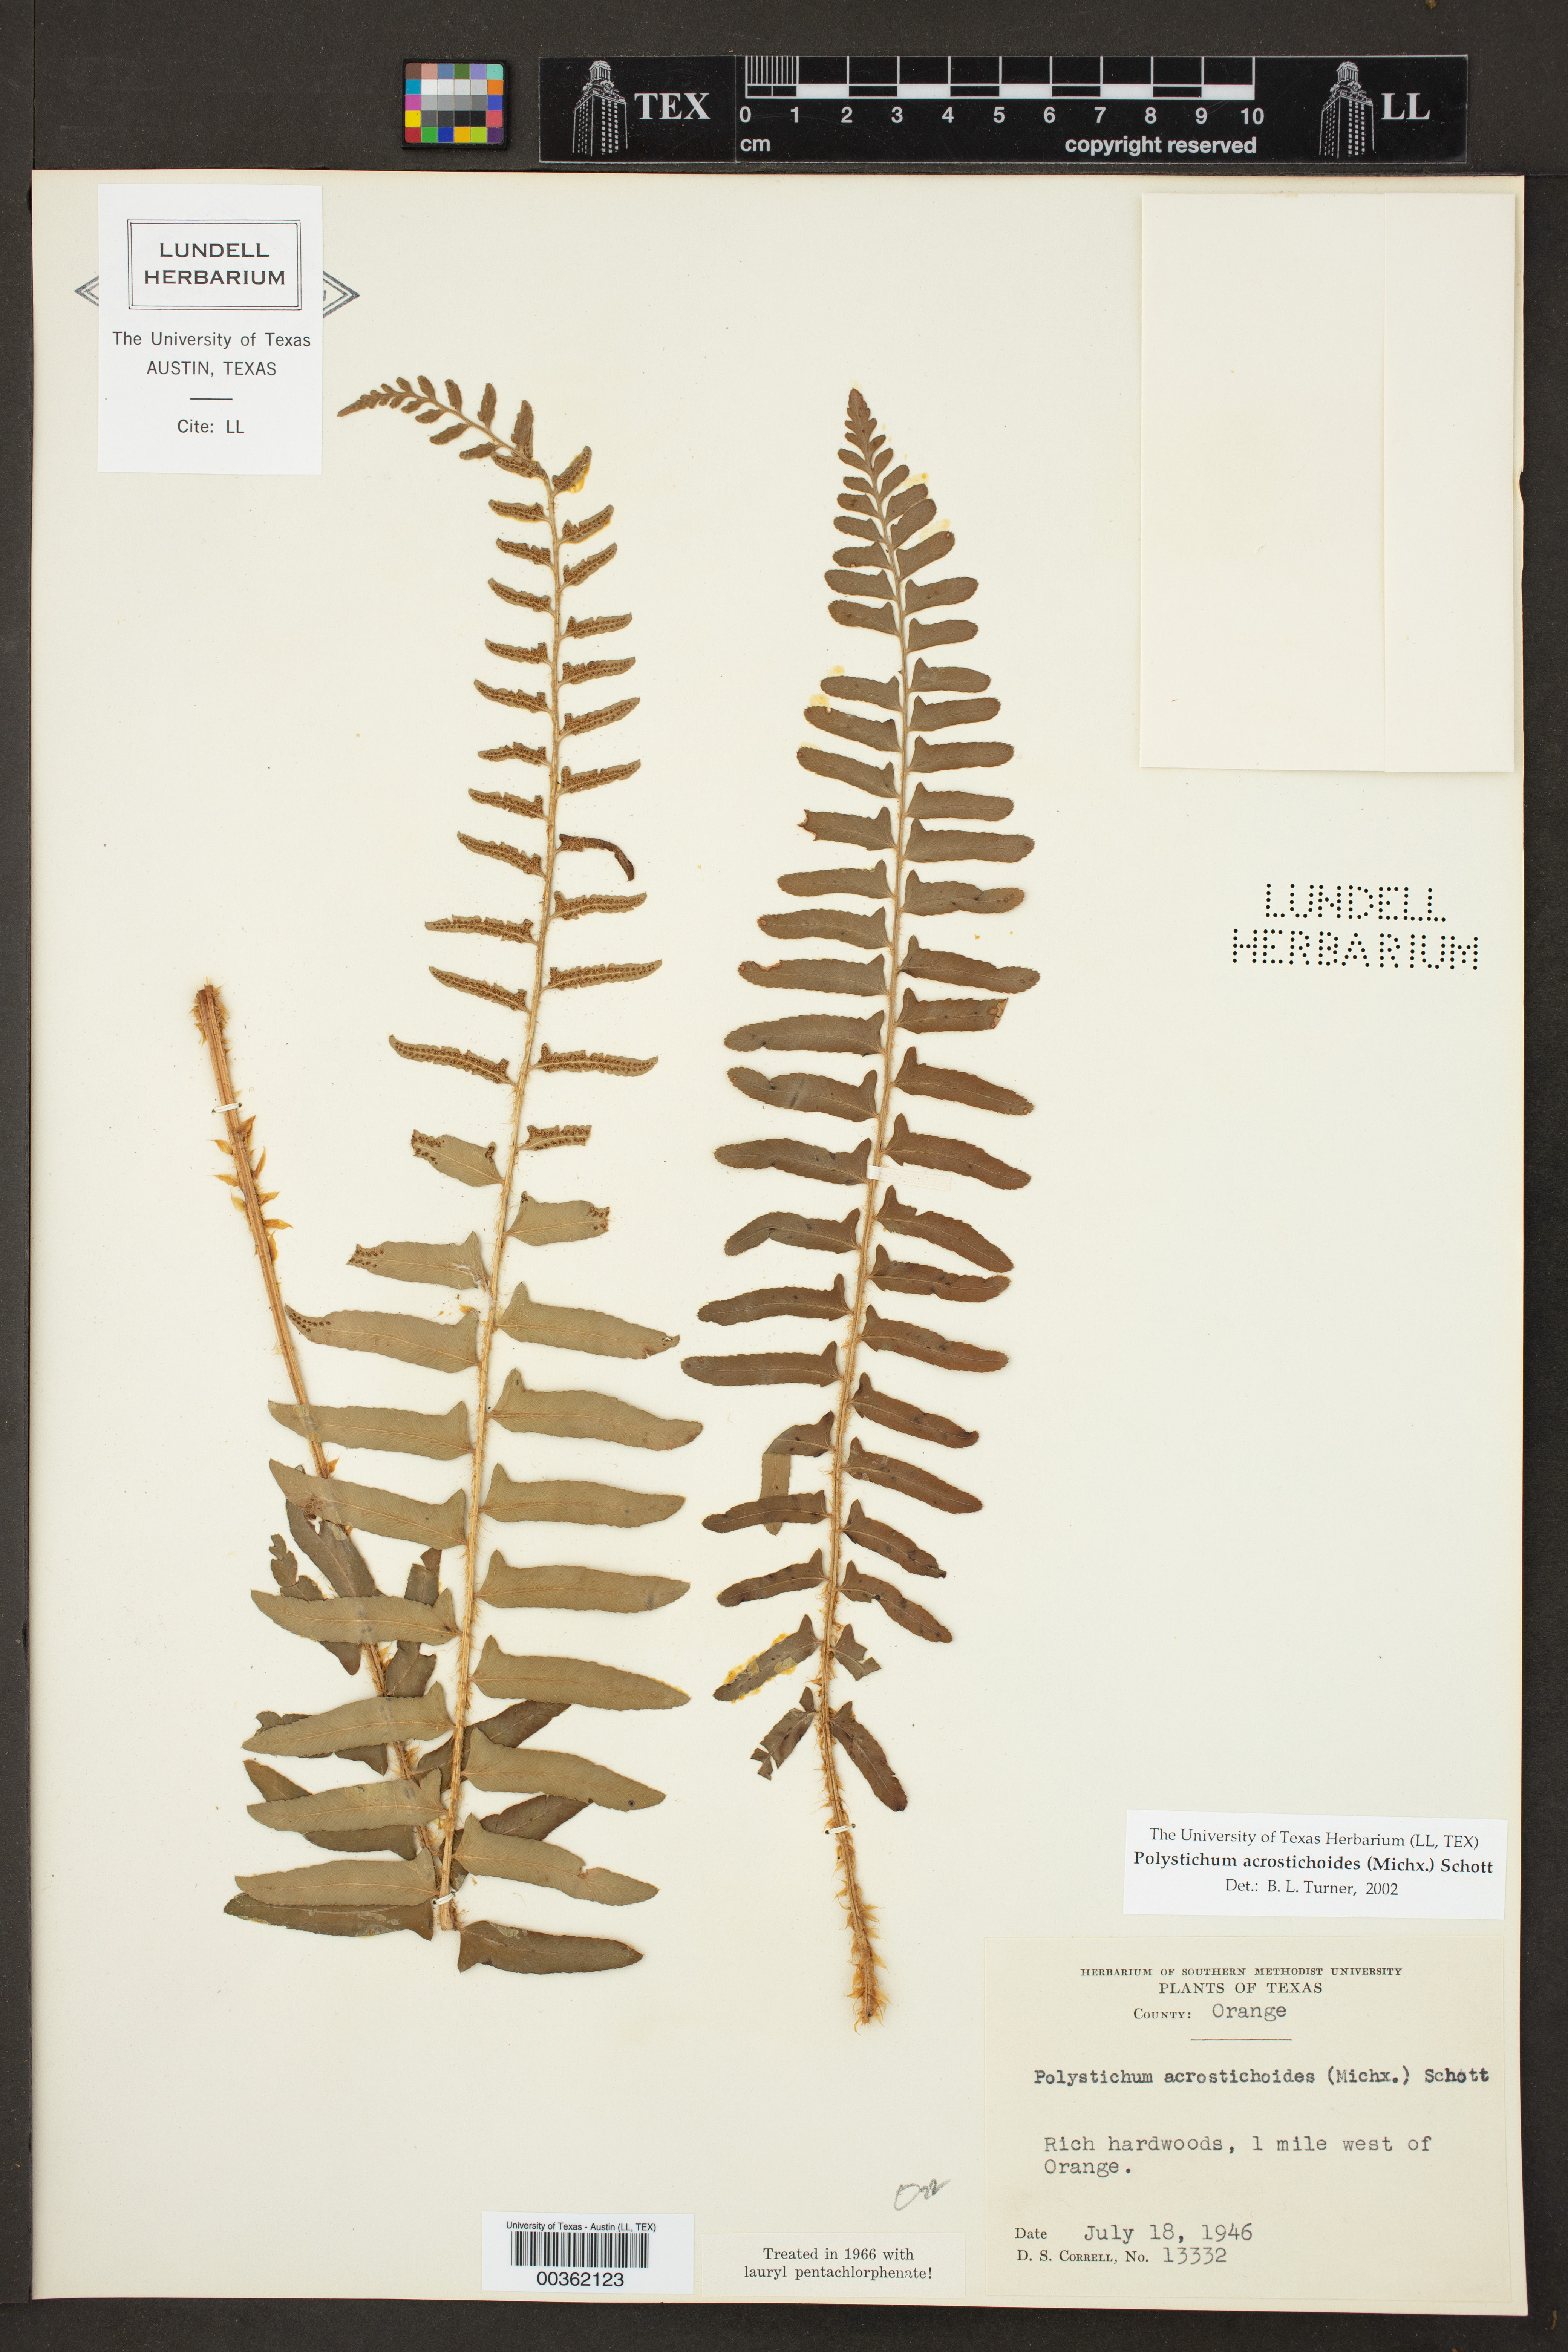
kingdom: Plantae
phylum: Tracheophyta
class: Polypodiopsida
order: Polypodiales
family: Dryopteridaceae
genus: Polystichum
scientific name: Polystichum acrostichoides
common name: Christmas fern
